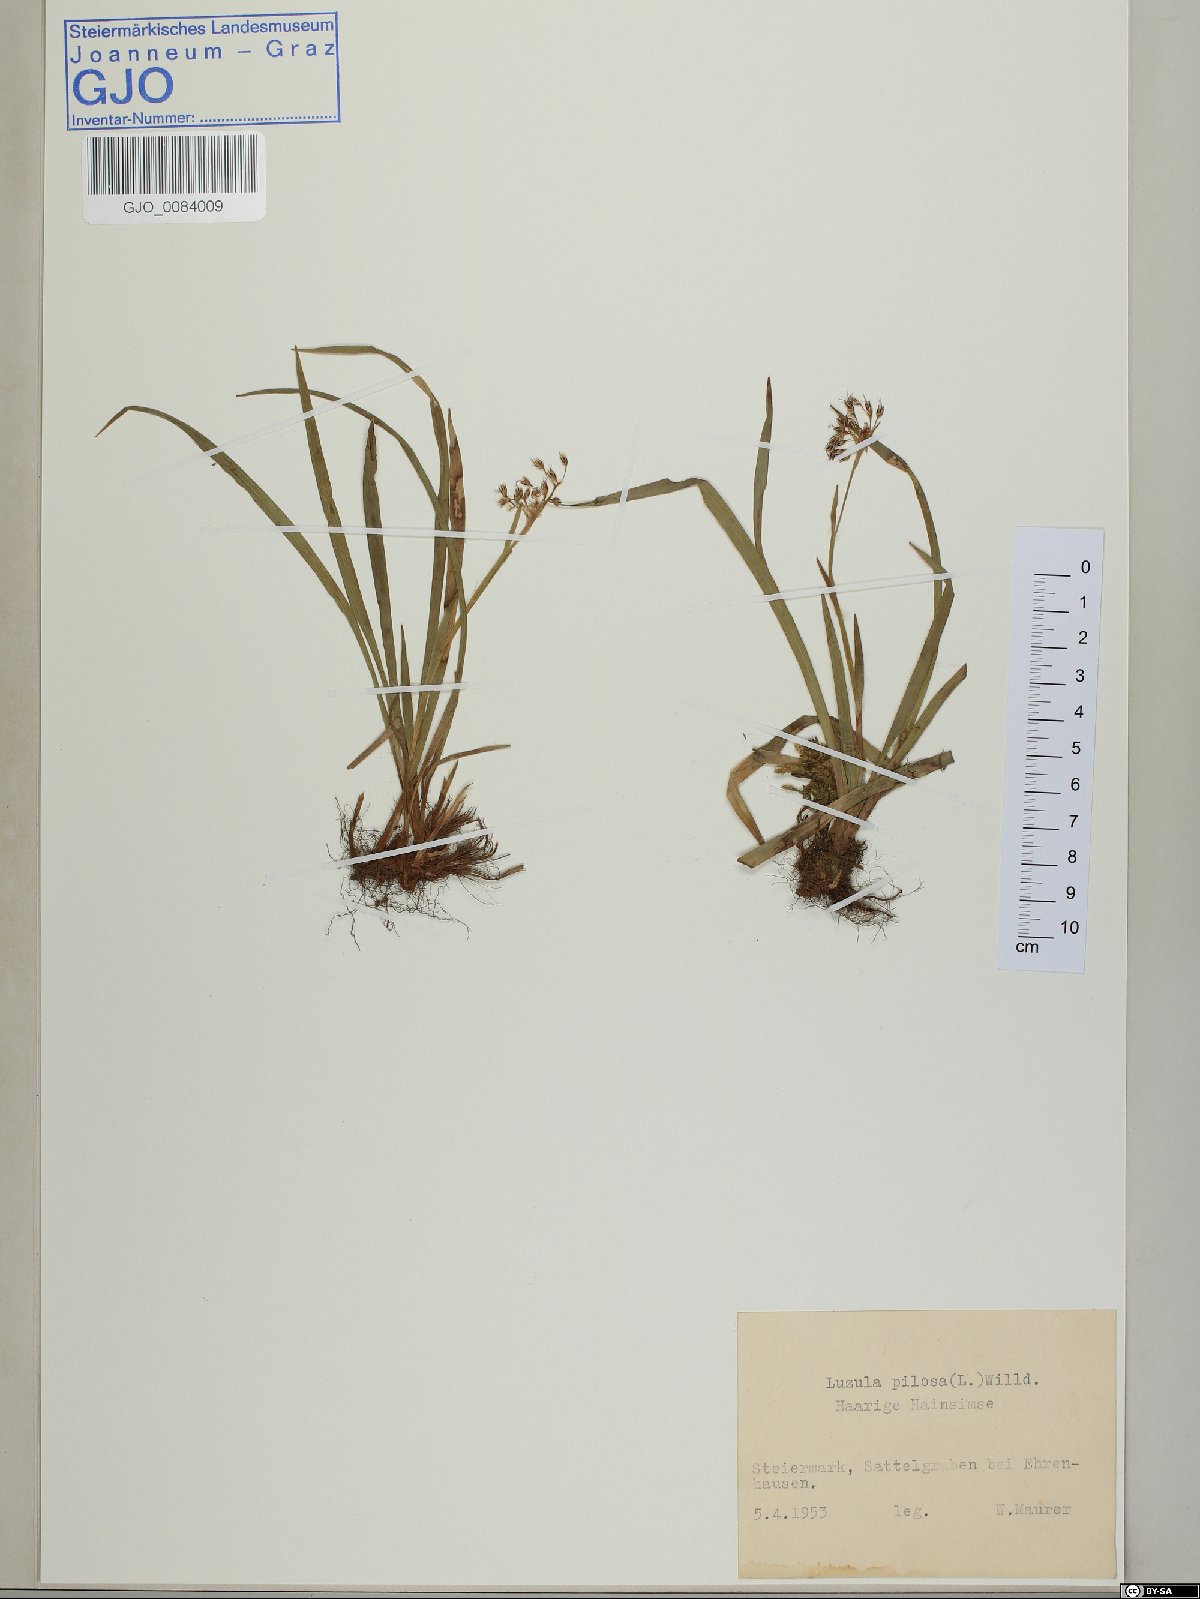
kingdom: Plantae
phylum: Tracheophyta
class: Liliopsida
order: Poales
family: Juncaceae
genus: Luzula
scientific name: Luzula pilosa
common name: Hairy wood-rush
